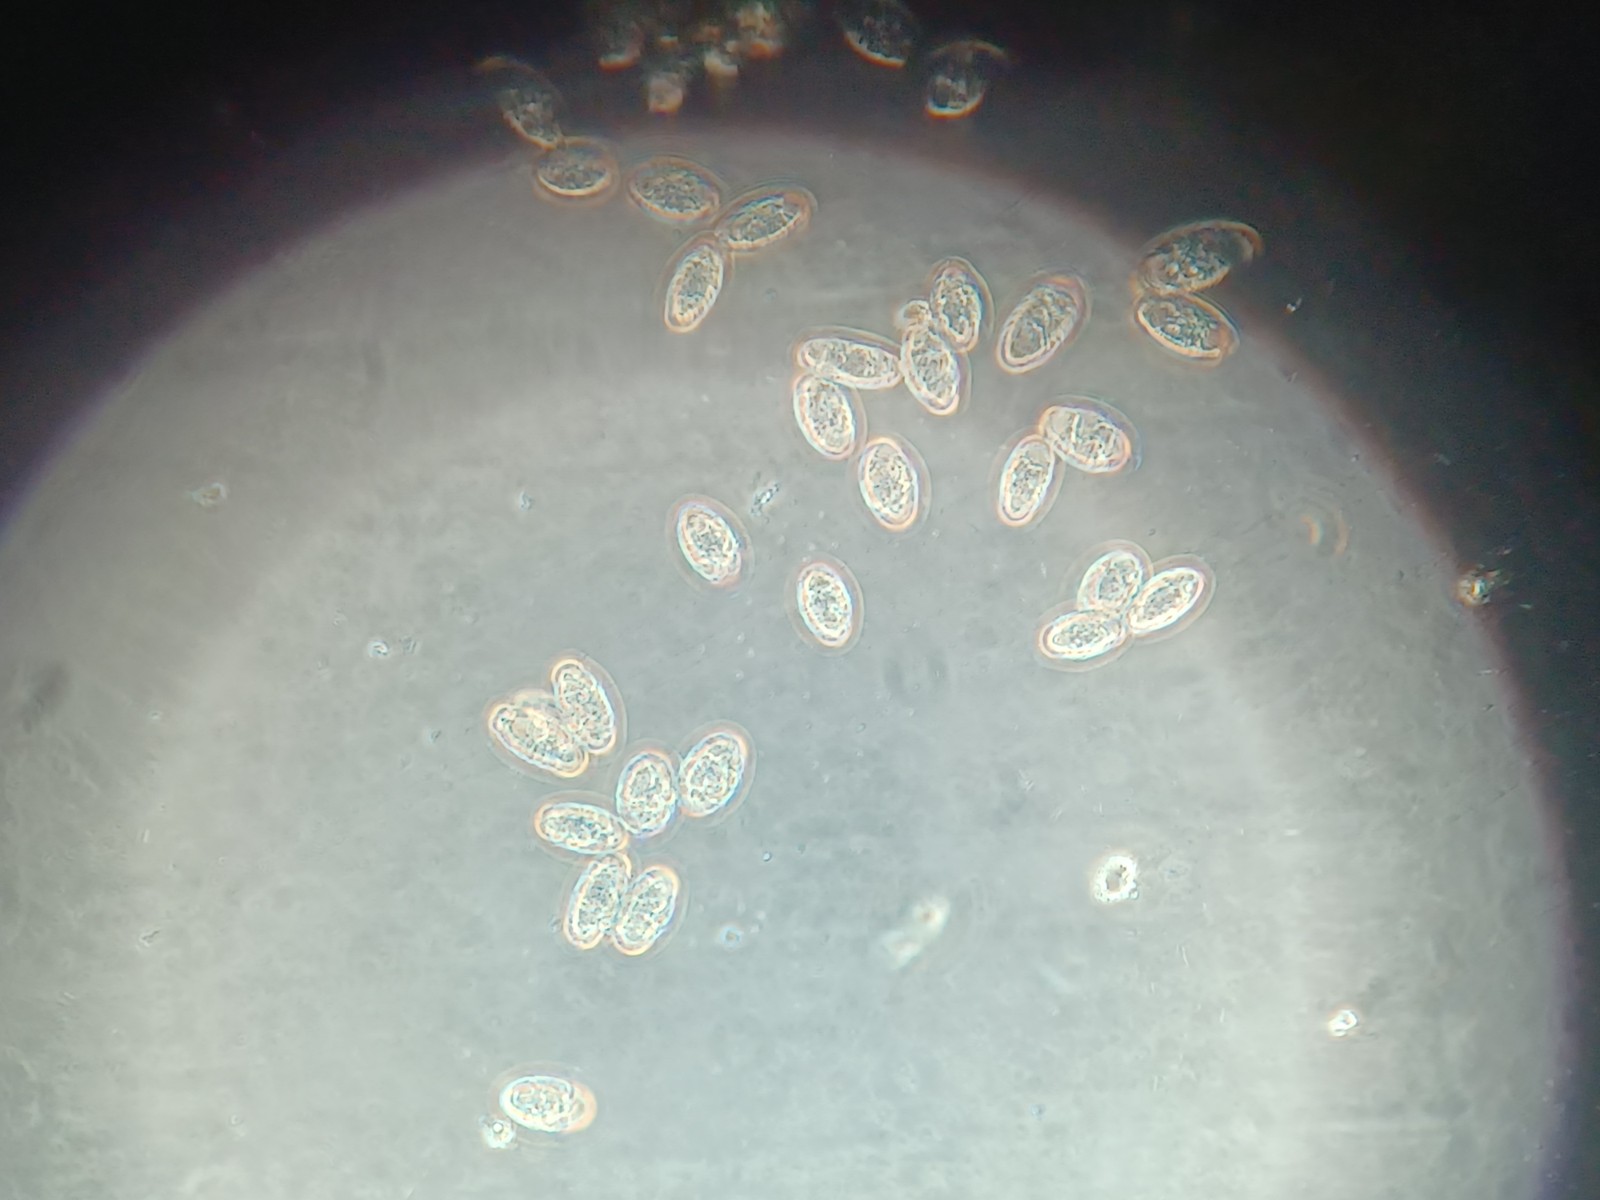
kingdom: Fungi
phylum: Ascomycota
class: Leotiomycetes
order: Helotiales
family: Erysiphaceae
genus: Neoerysiphe
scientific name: Neoerysiphe galeopsidis
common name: Mint mildew
